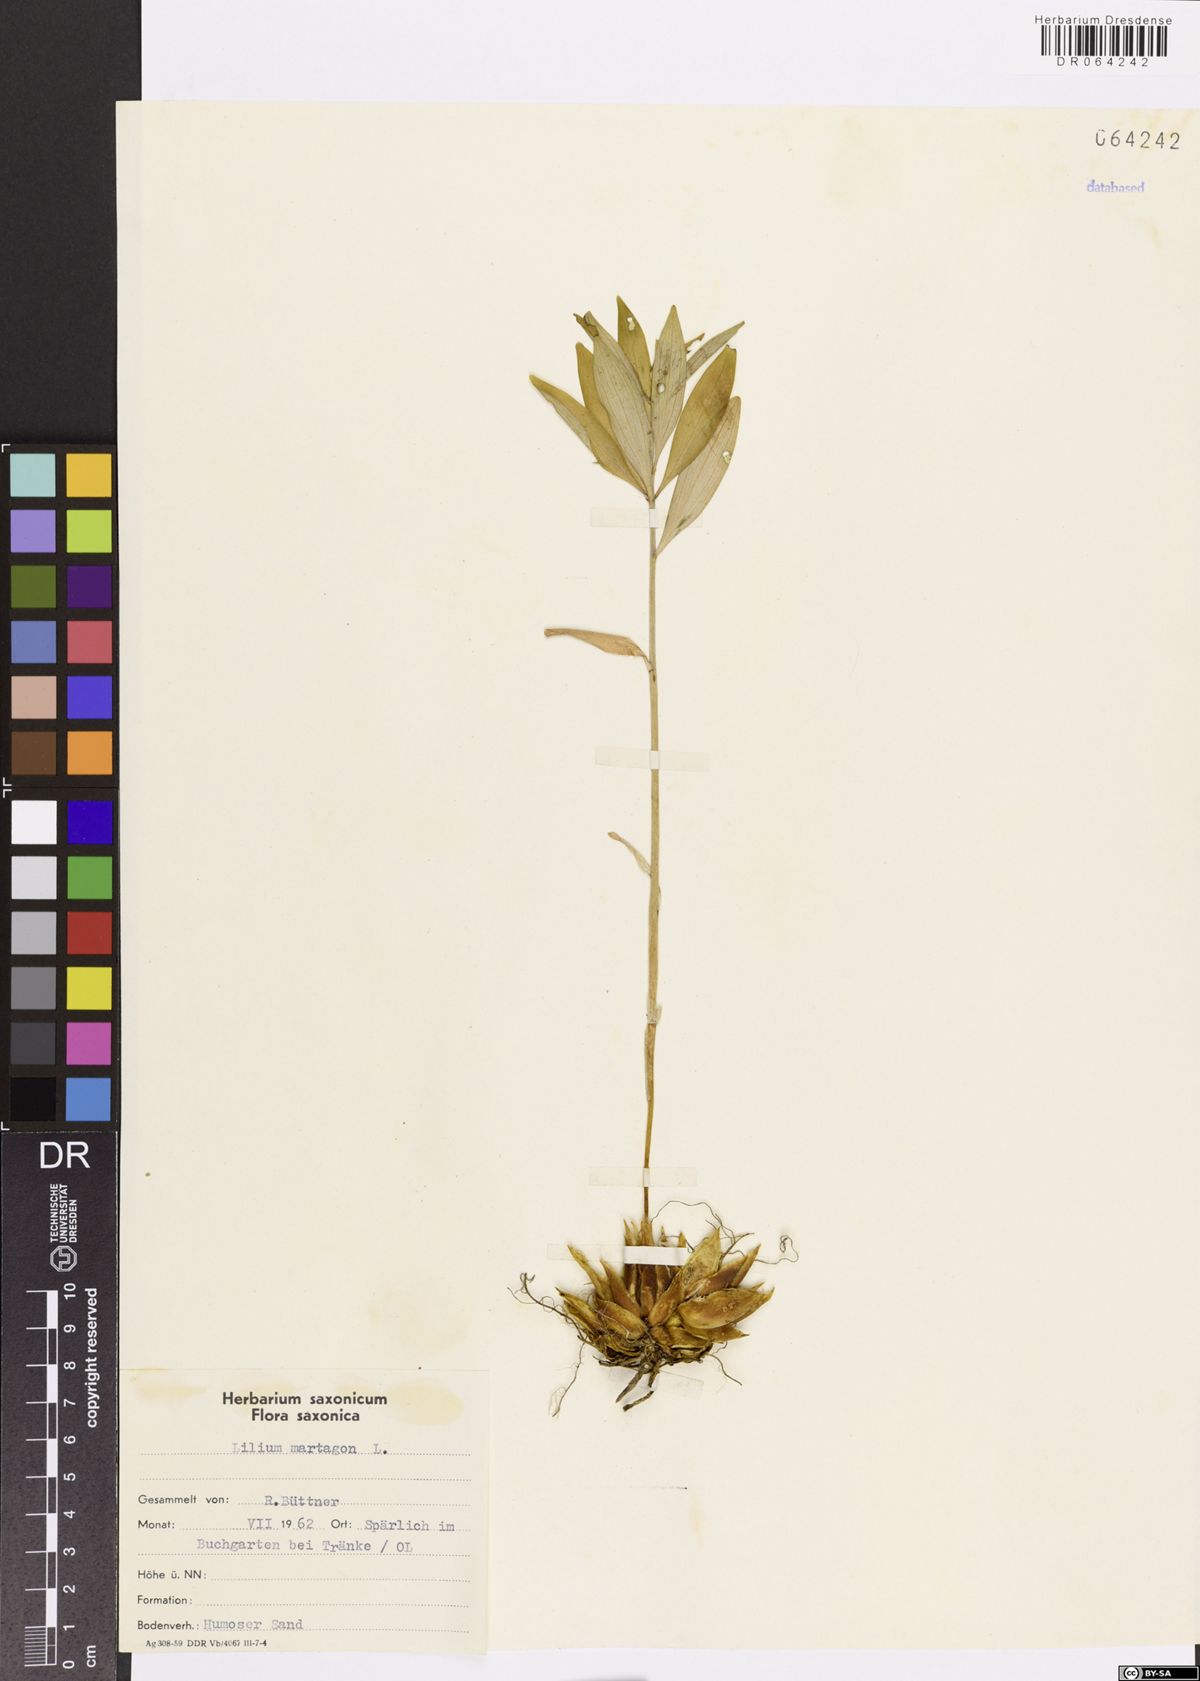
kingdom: Plantae
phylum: Tracheophyta
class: Liliopsida
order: Liliales
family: Liliaceae
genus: Lilium
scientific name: Lilium martagon
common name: Martagon lily
